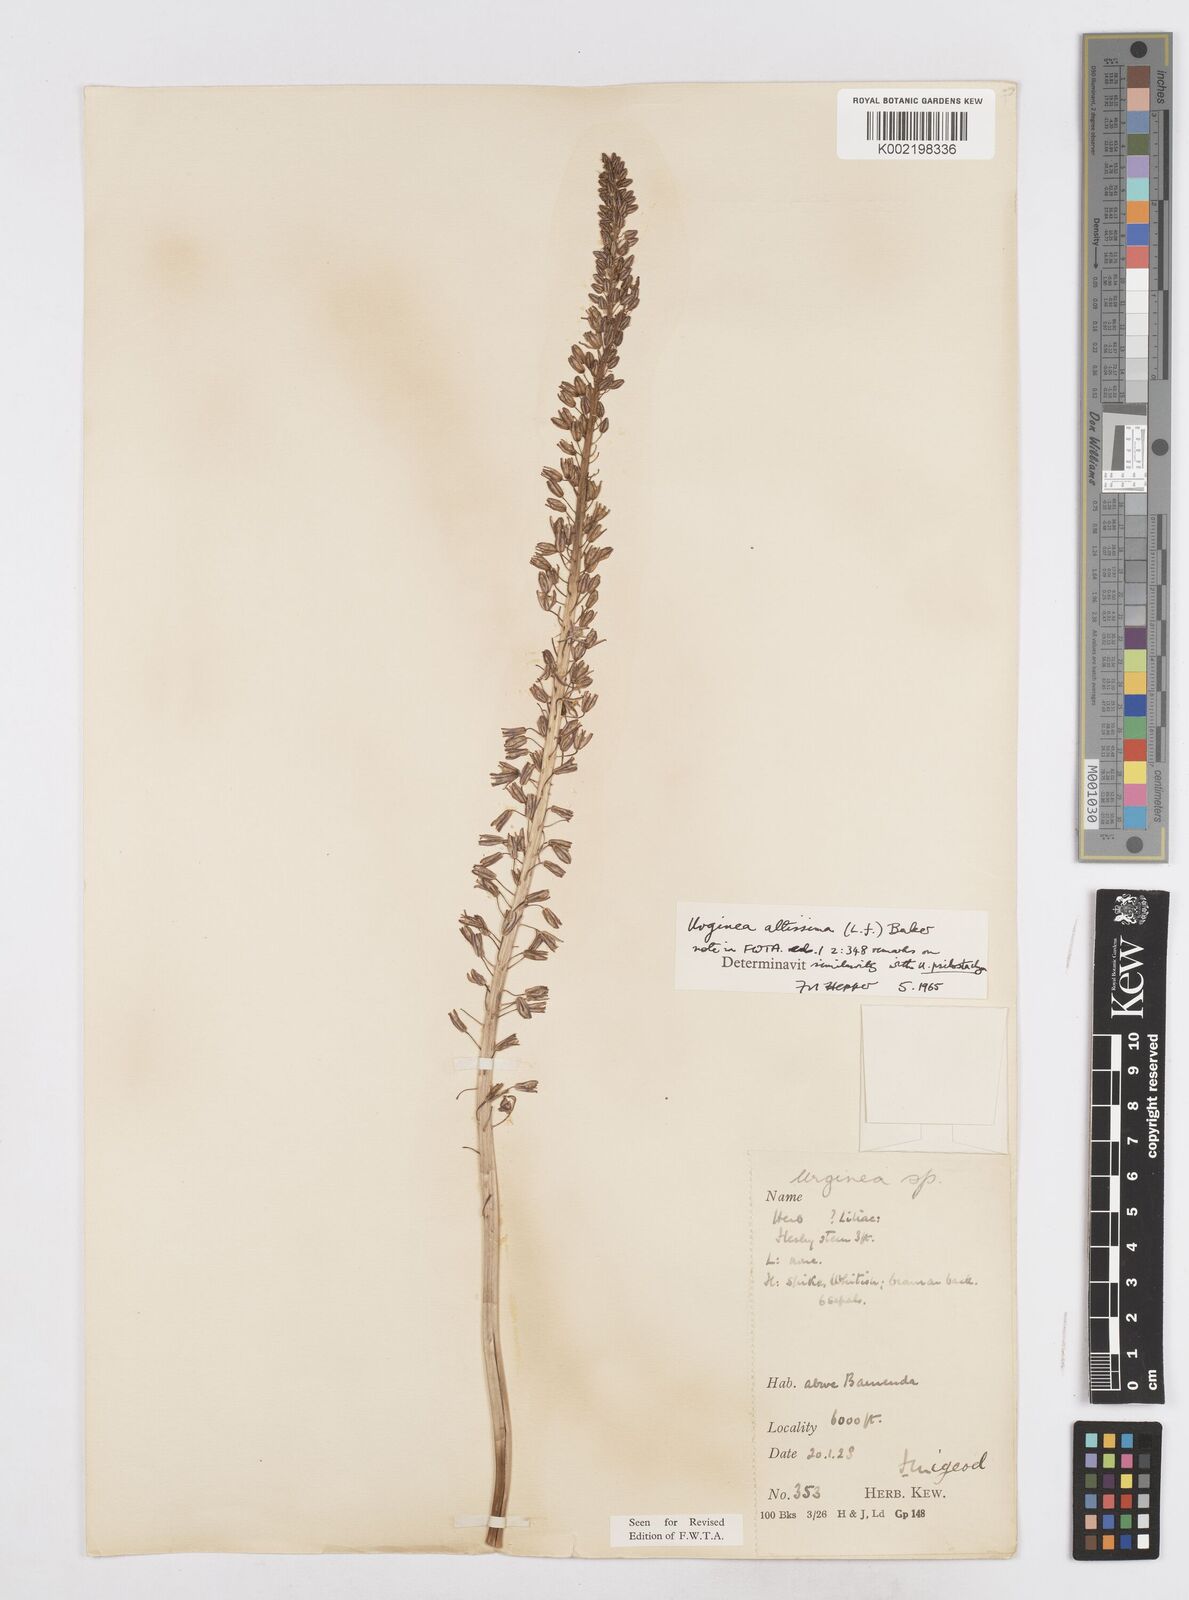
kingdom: Plantae
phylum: Tracheophyta
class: Liliopsida
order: Asparagales
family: Asparagaceae
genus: Drimia
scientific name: Drimia altissima
